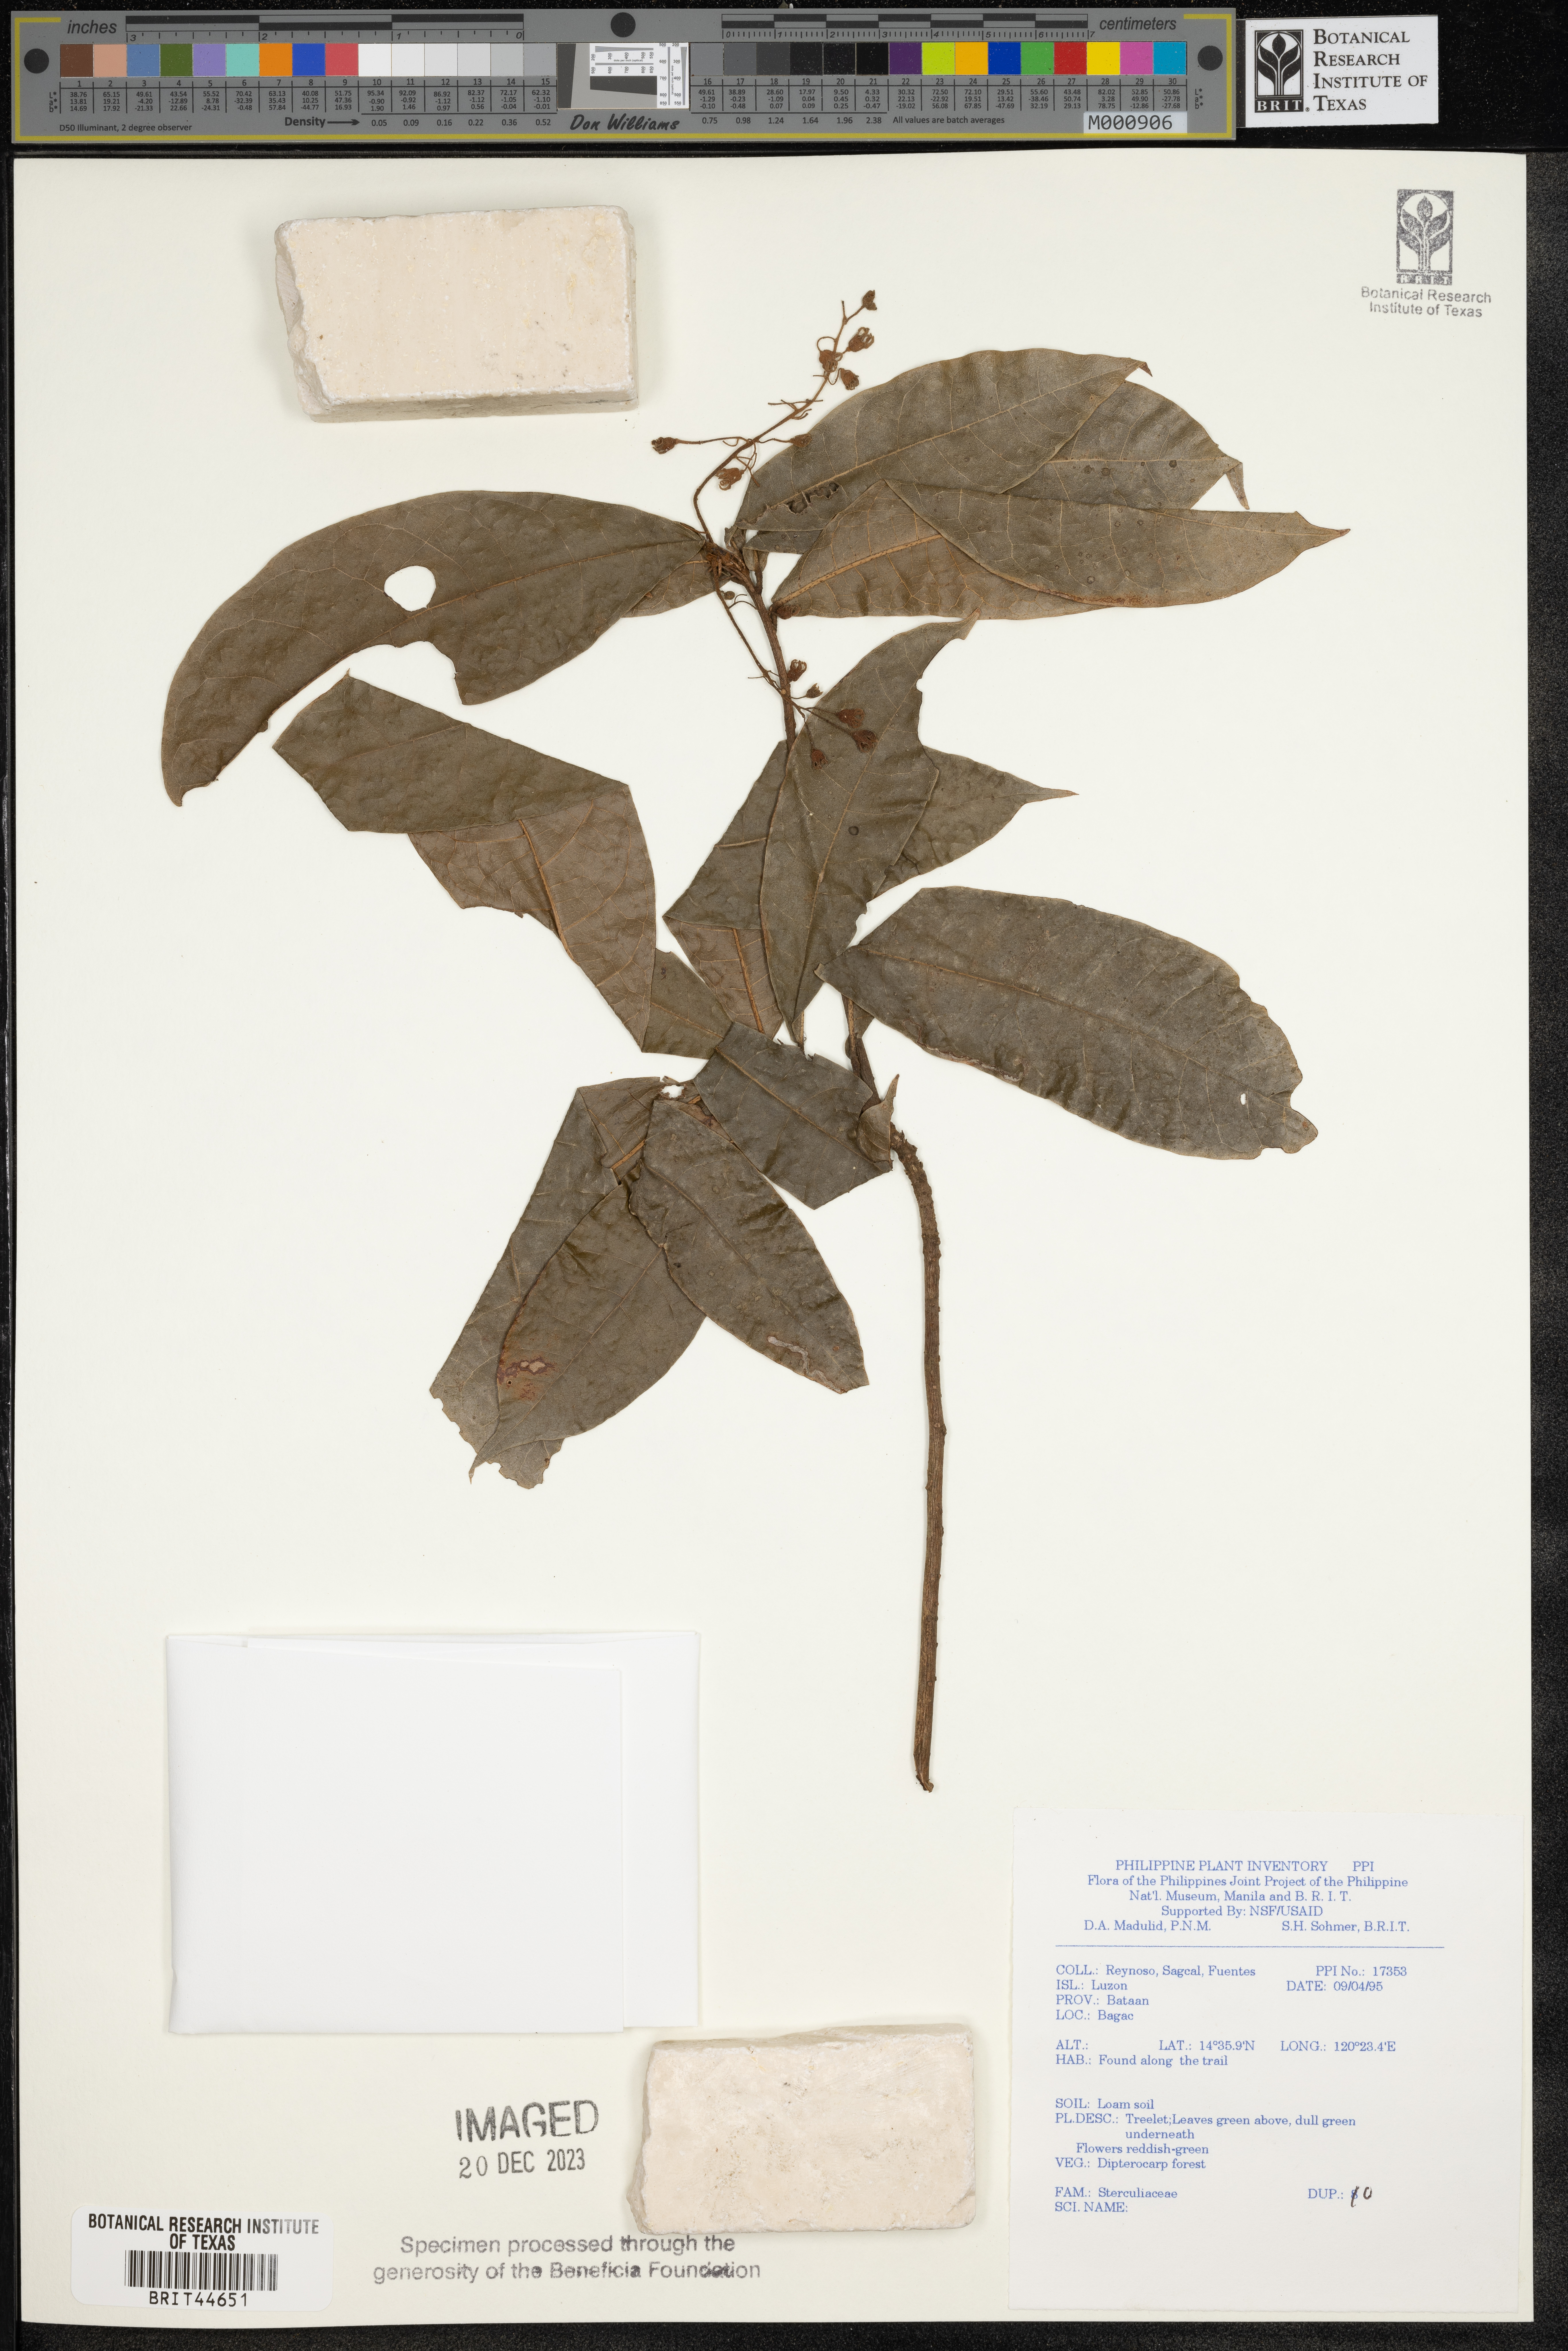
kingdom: Plantae
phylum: Tracheophyta
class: Magnoliopsida
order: Malvales
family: Sterculiaceae
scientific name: Sterculiaceae
